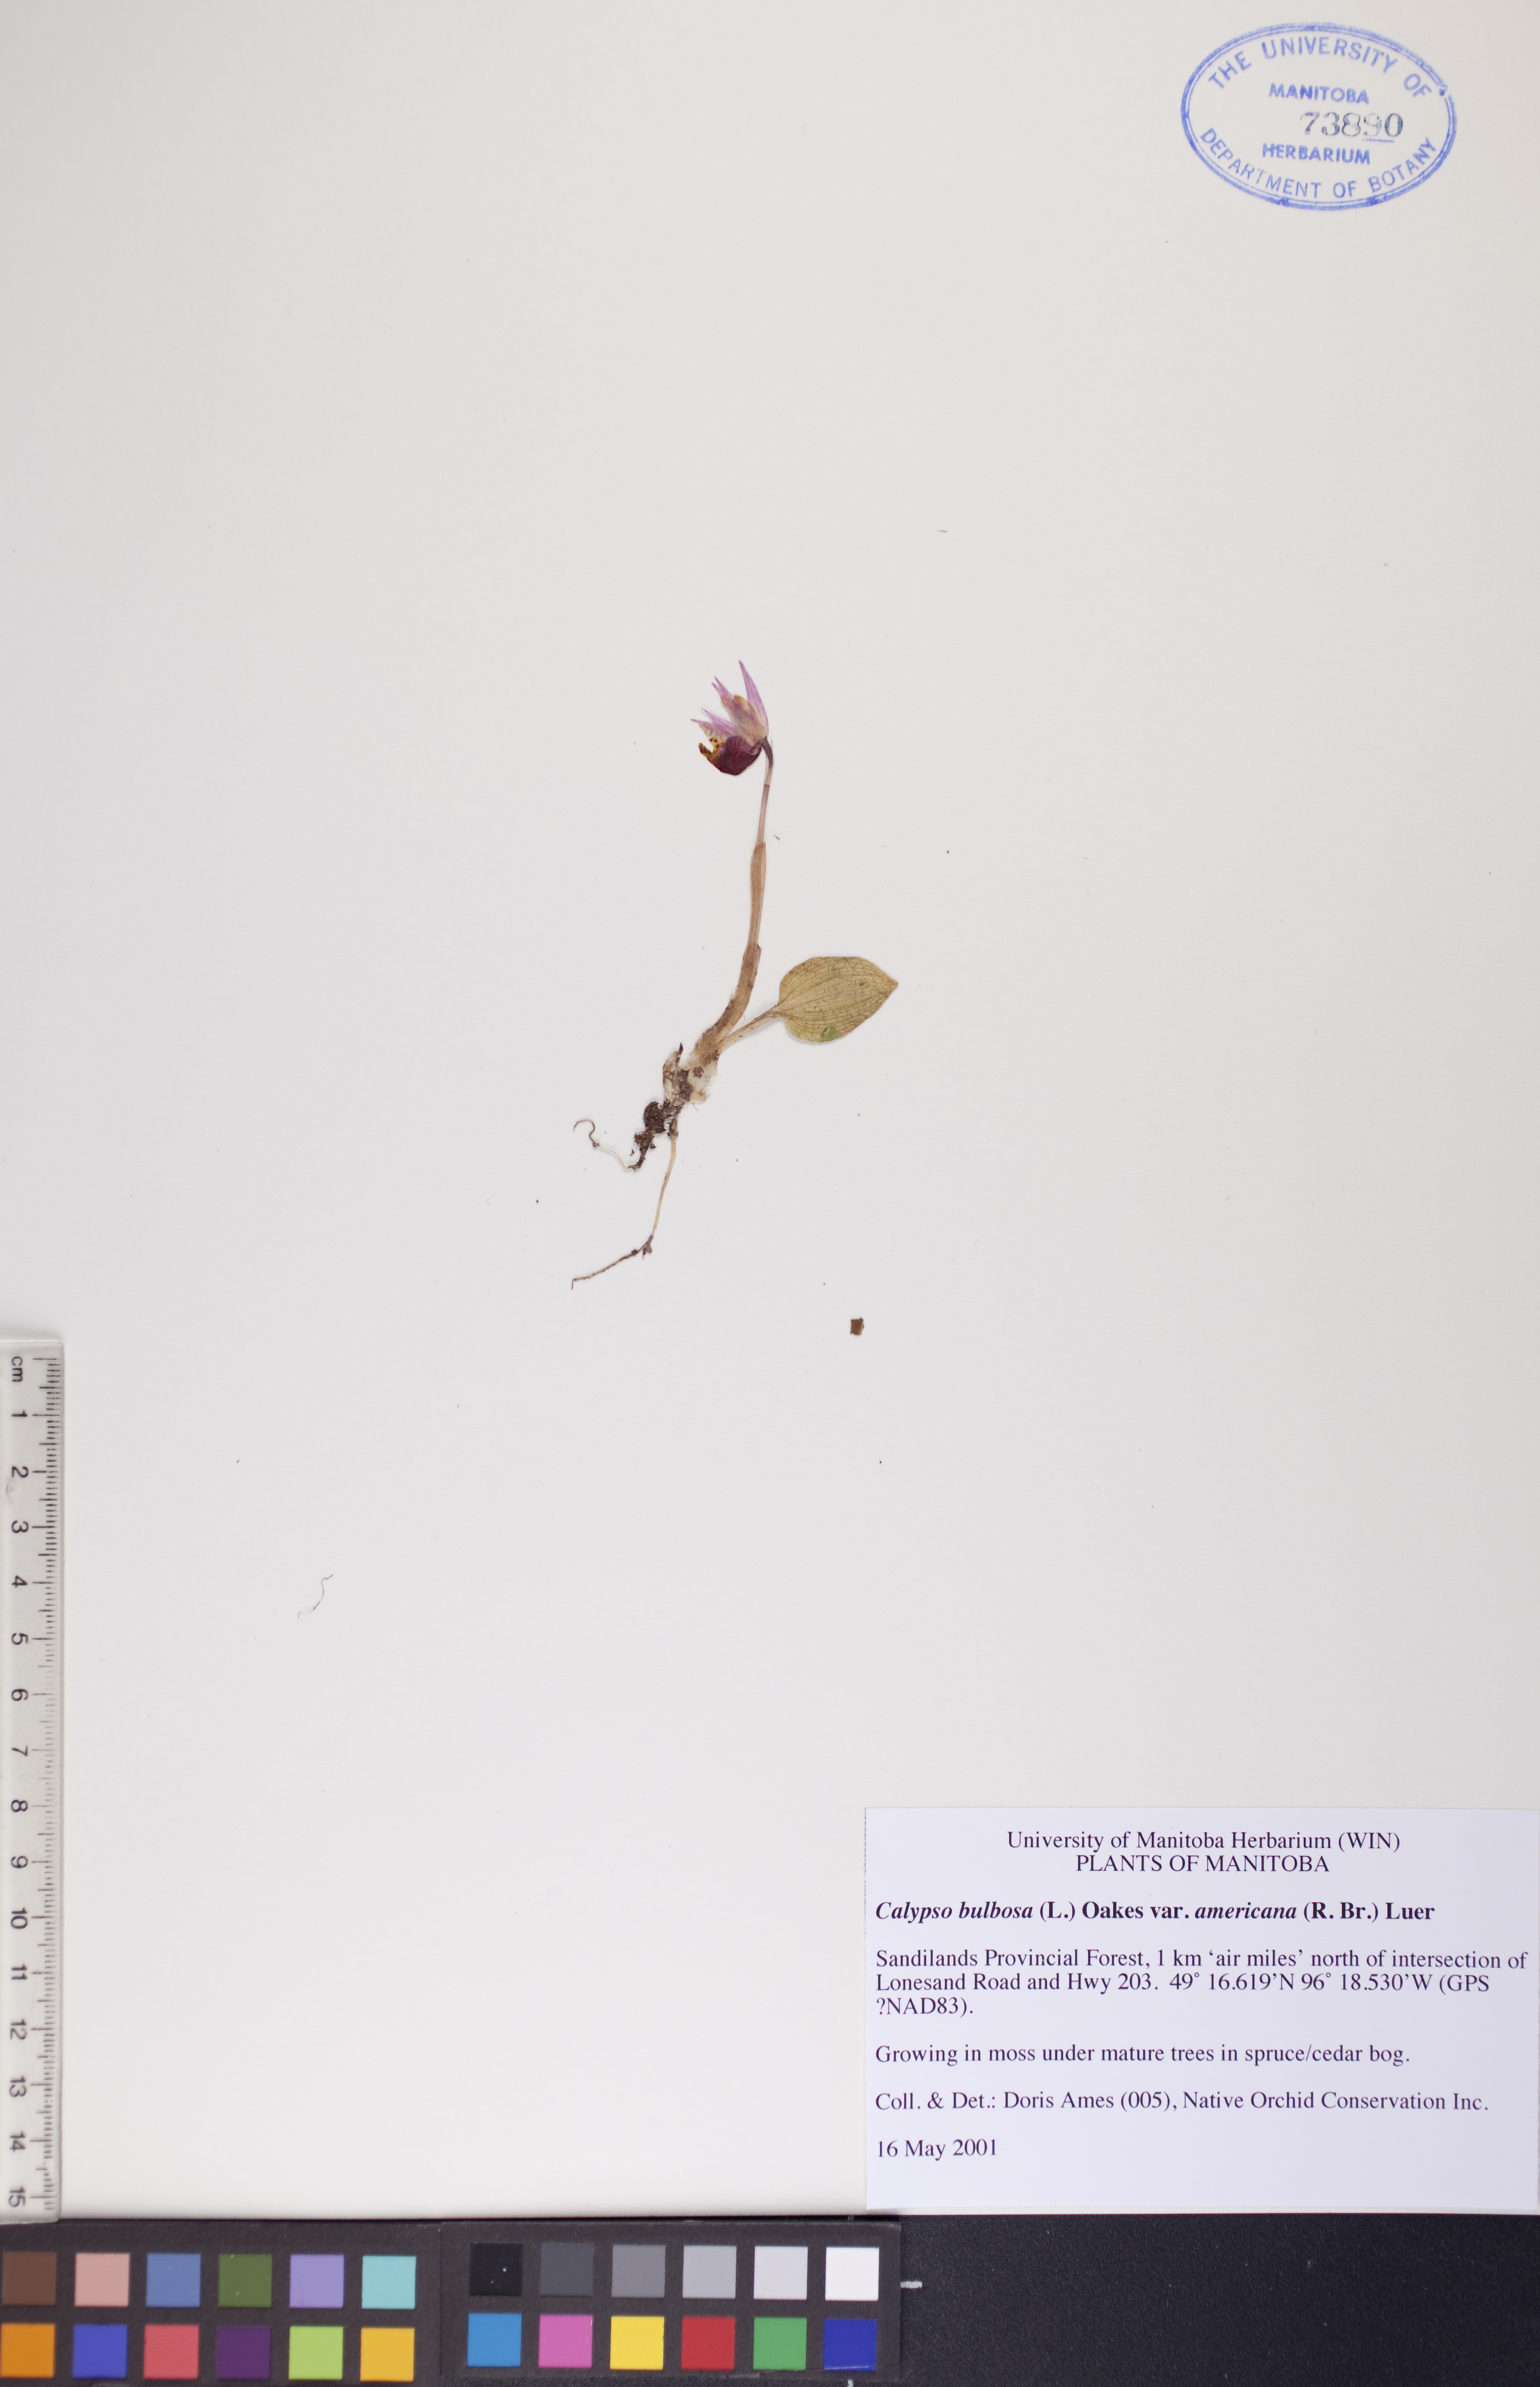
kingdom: Plantae
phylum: Tracheophyta
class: Liliopsida
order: Asparagales
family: Orchidaceae
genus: Calypso
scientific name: Calypso bulbosa
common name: Calypso
